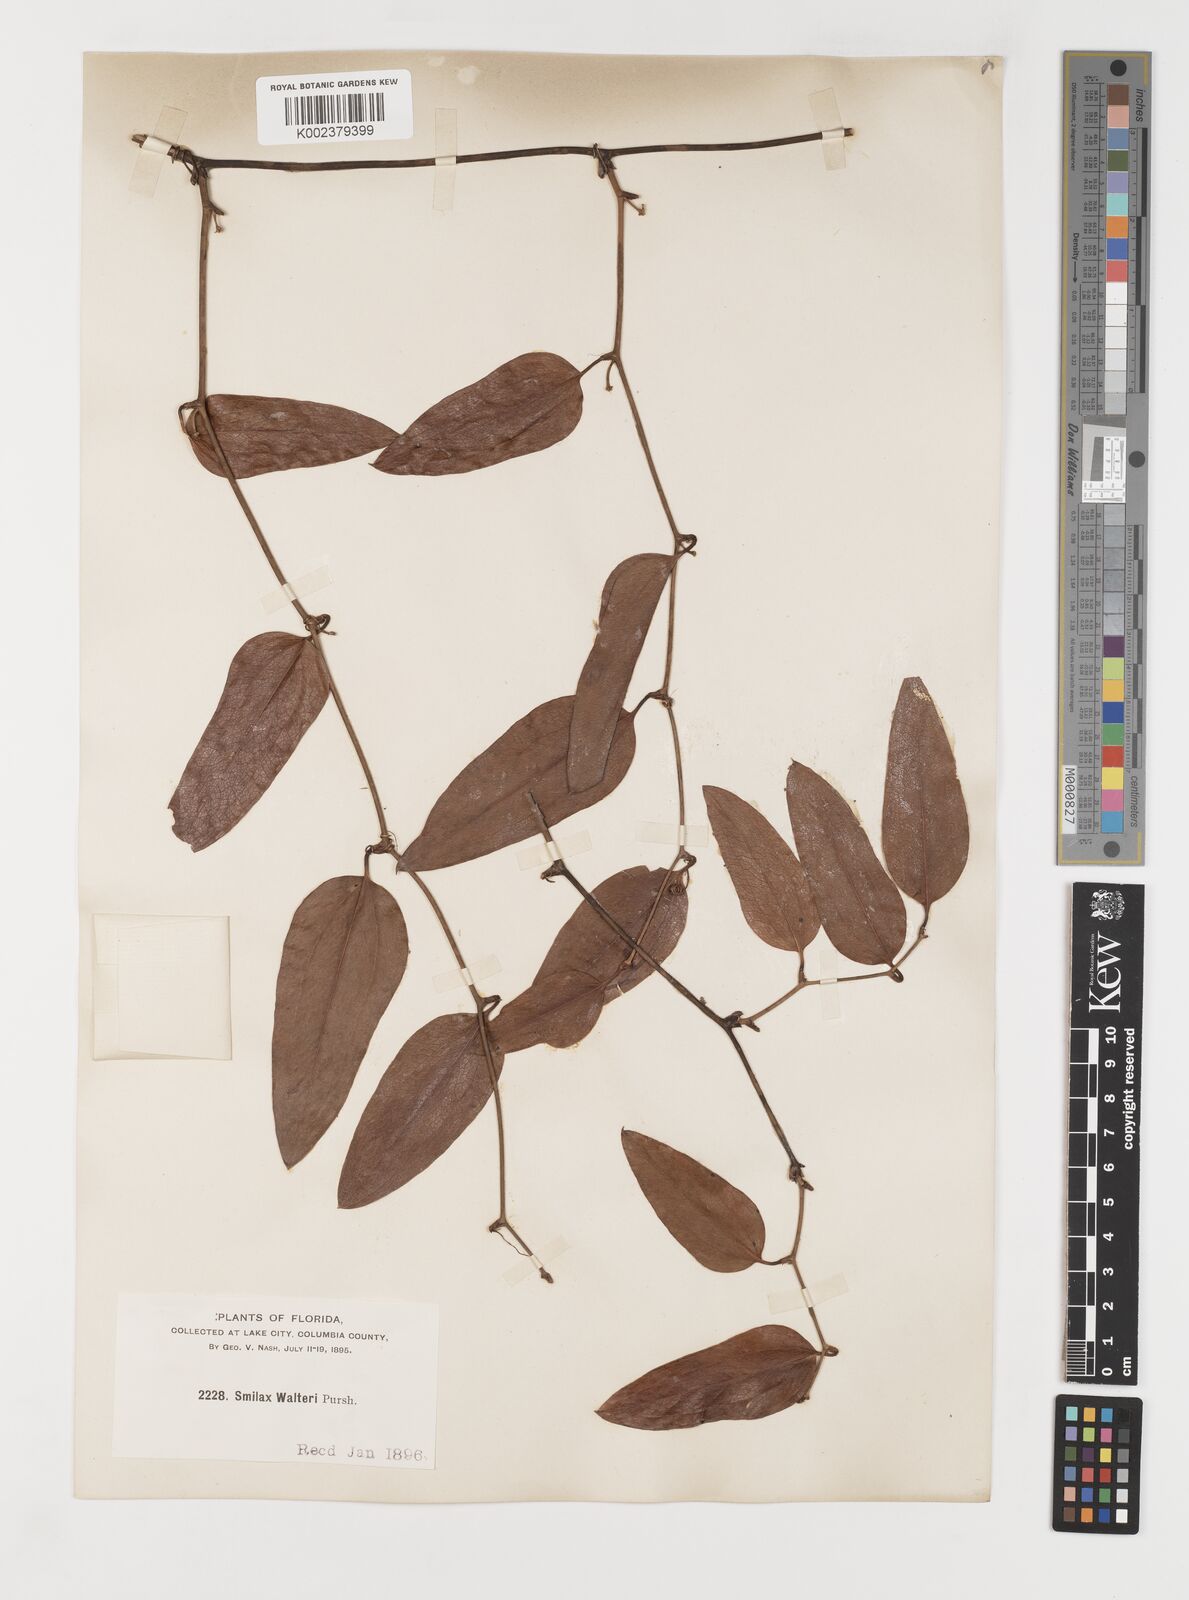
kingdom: Plantae
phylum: Tracheophyta
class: Liliopsida
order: Liliales
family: Smilacaceae
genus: Smilax
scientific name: Smilax walteri
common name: Coral greenbrier
